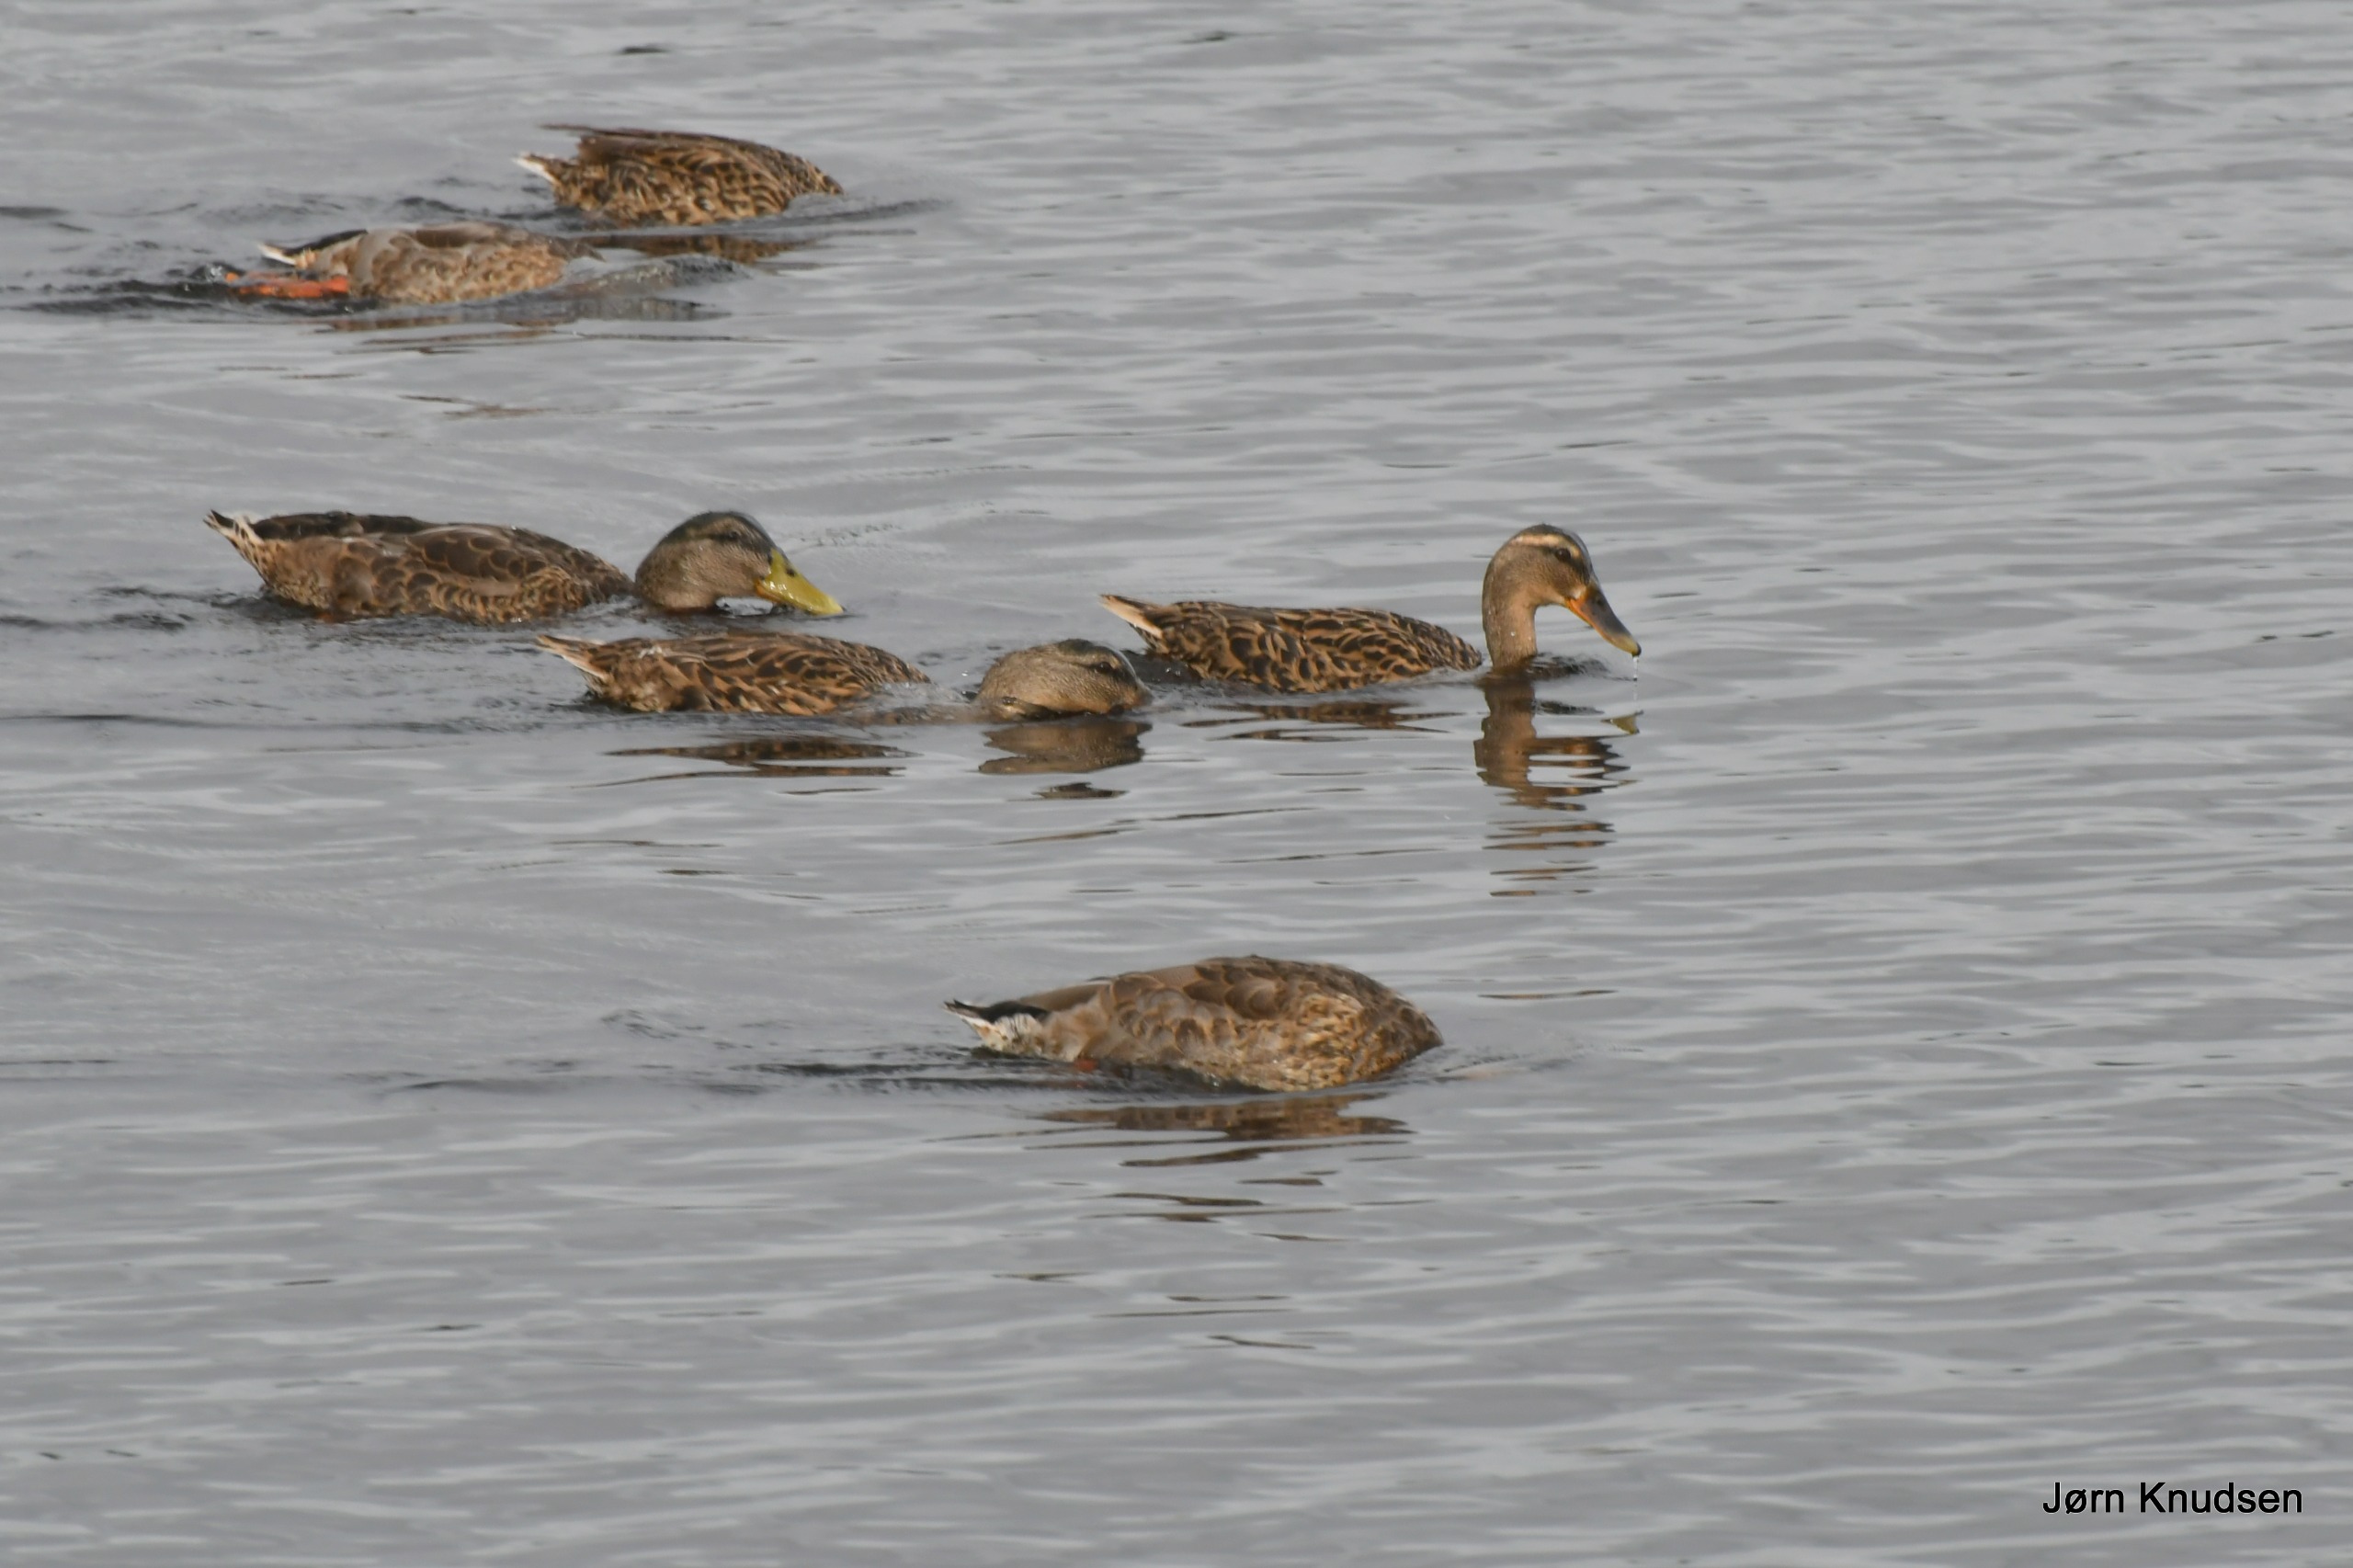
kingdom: Animalia
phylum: Chordata
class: Aves
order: Anseriformes
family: Anatidae
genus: Anas
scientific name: Anas platyrhynchos
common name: Gråand
